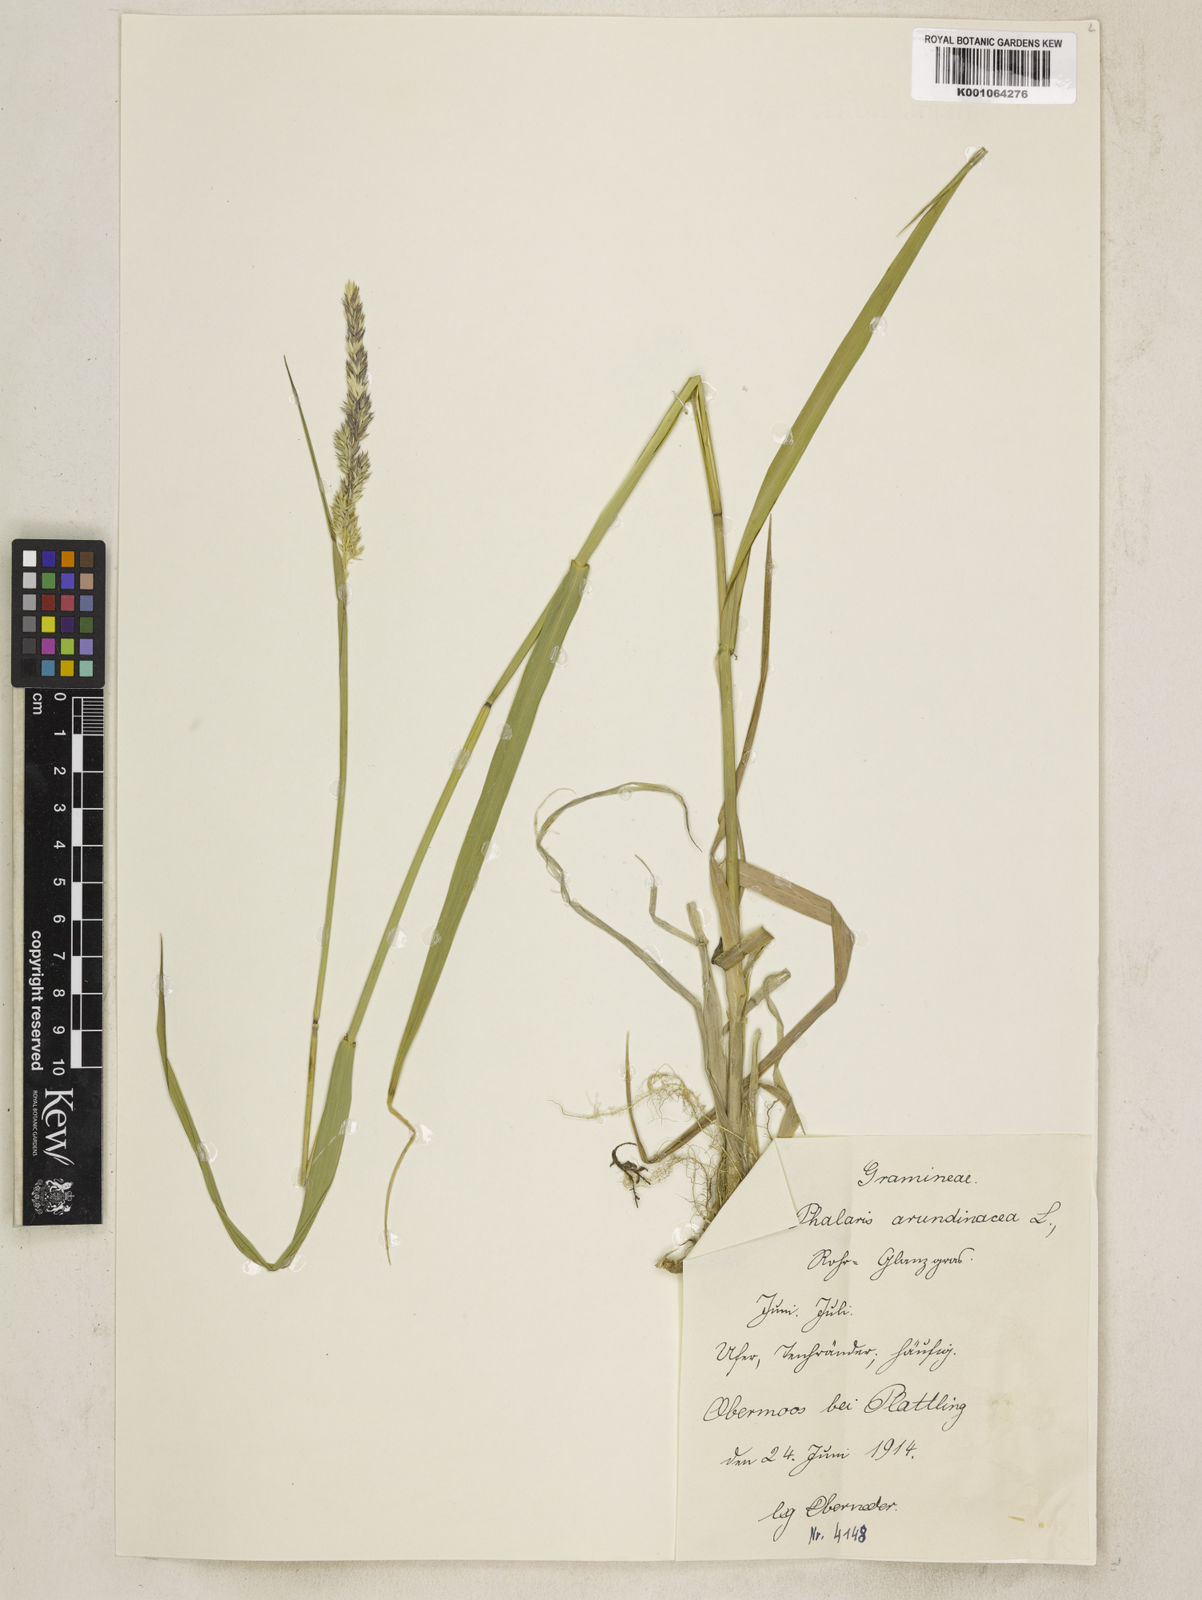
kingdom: Plantae
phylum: Tracheophyta
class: Liliopsida
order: Poales
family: Poaceae
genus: Phalaris
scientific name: Phalaris arundinacea
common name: Reed canary-grass
